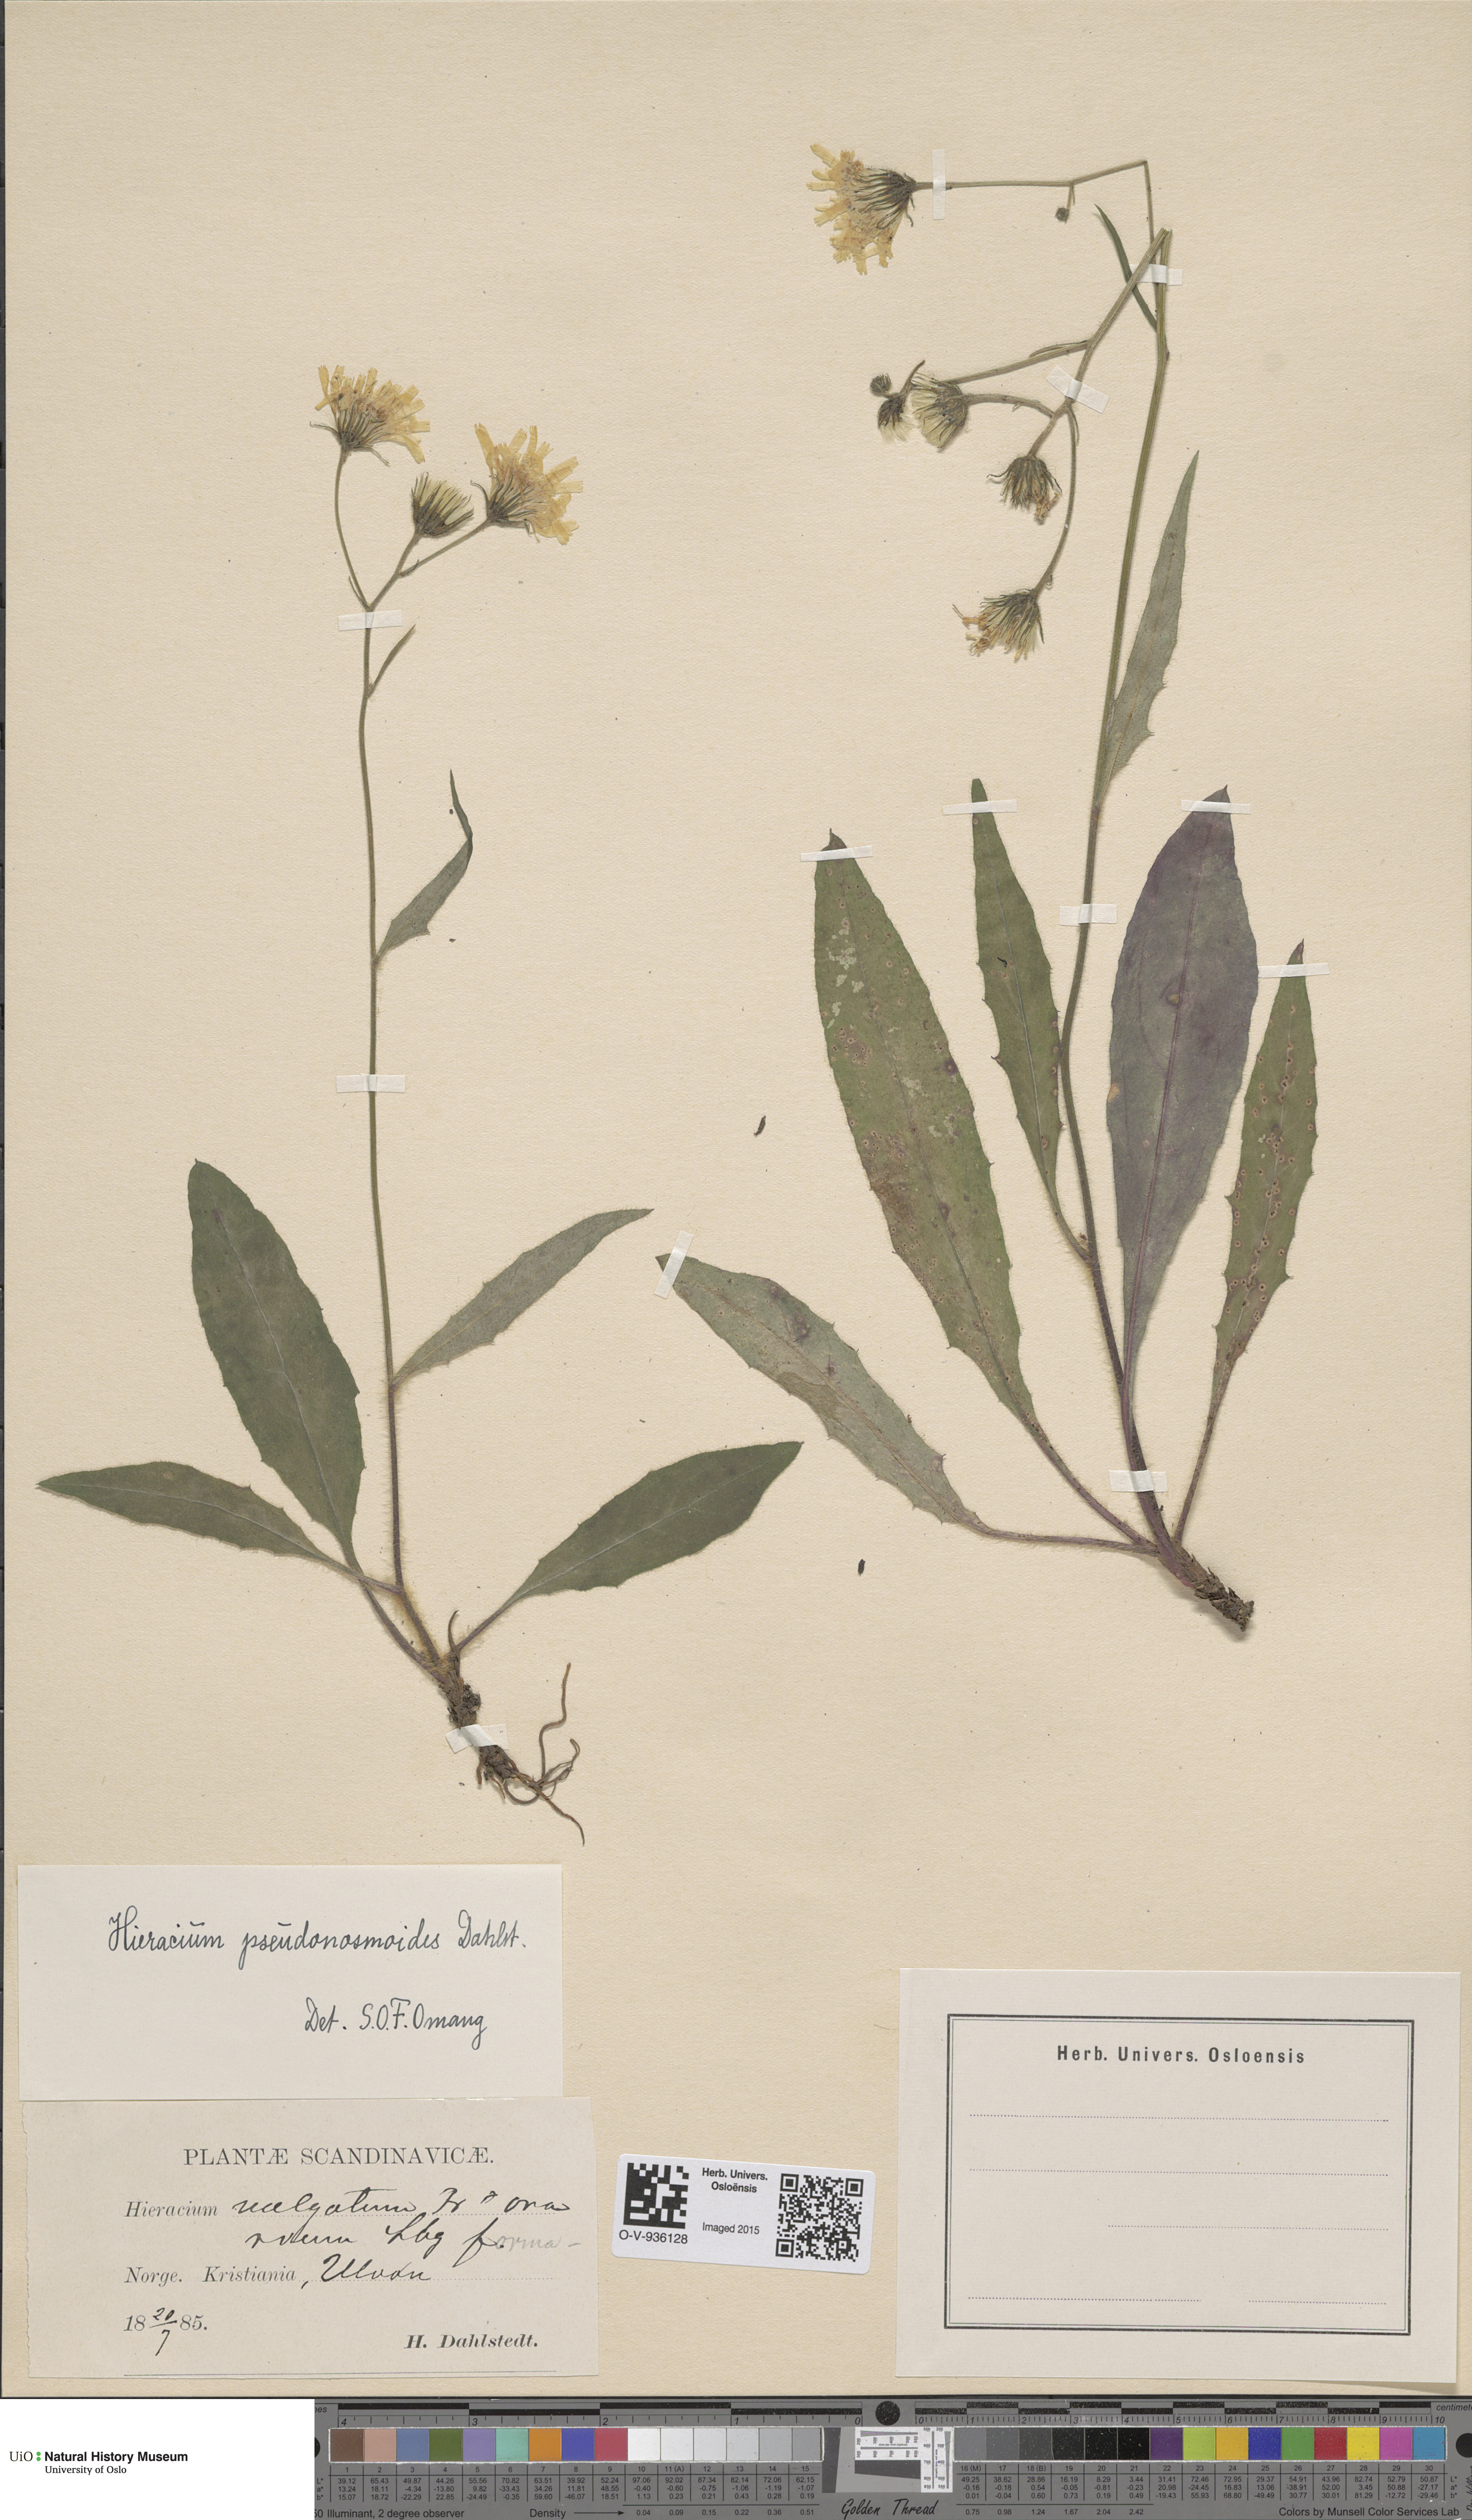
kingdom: Plantae
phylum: Tracheophyta
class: Magnoliopsida
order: Asterales
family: Asteraceae
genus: Hieracium
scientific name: Hieracium saxifragum
